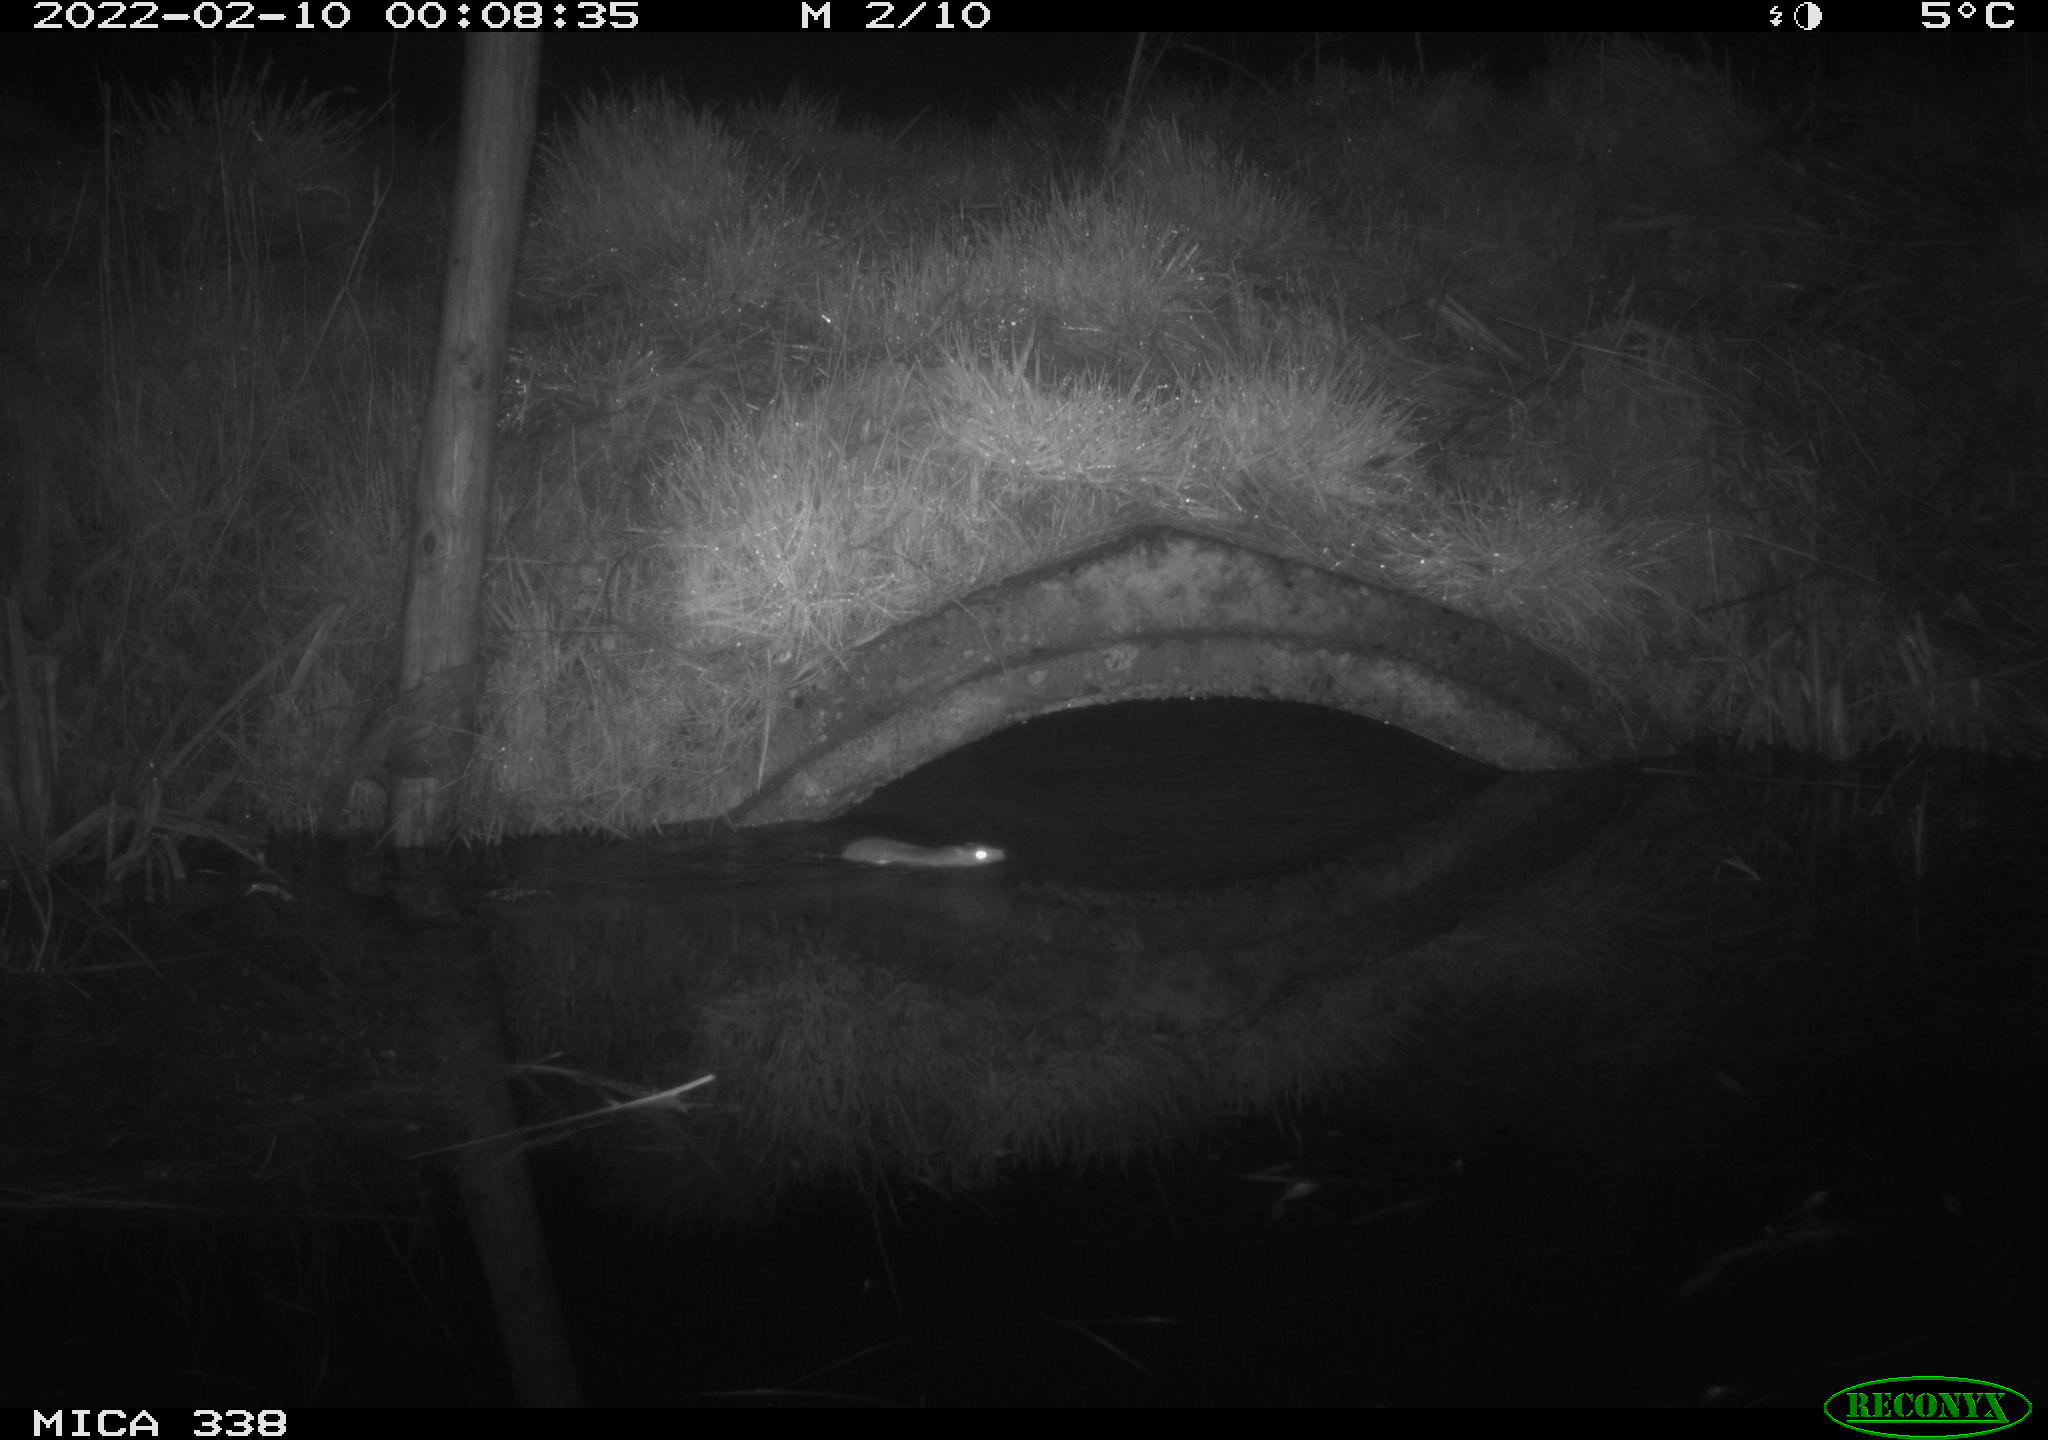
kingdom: Animalia
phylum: Chordata
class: Mammalia
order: Rodentia
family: Muridae
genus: Rattus
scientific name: Rattus norvegicus
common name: Brown rat
